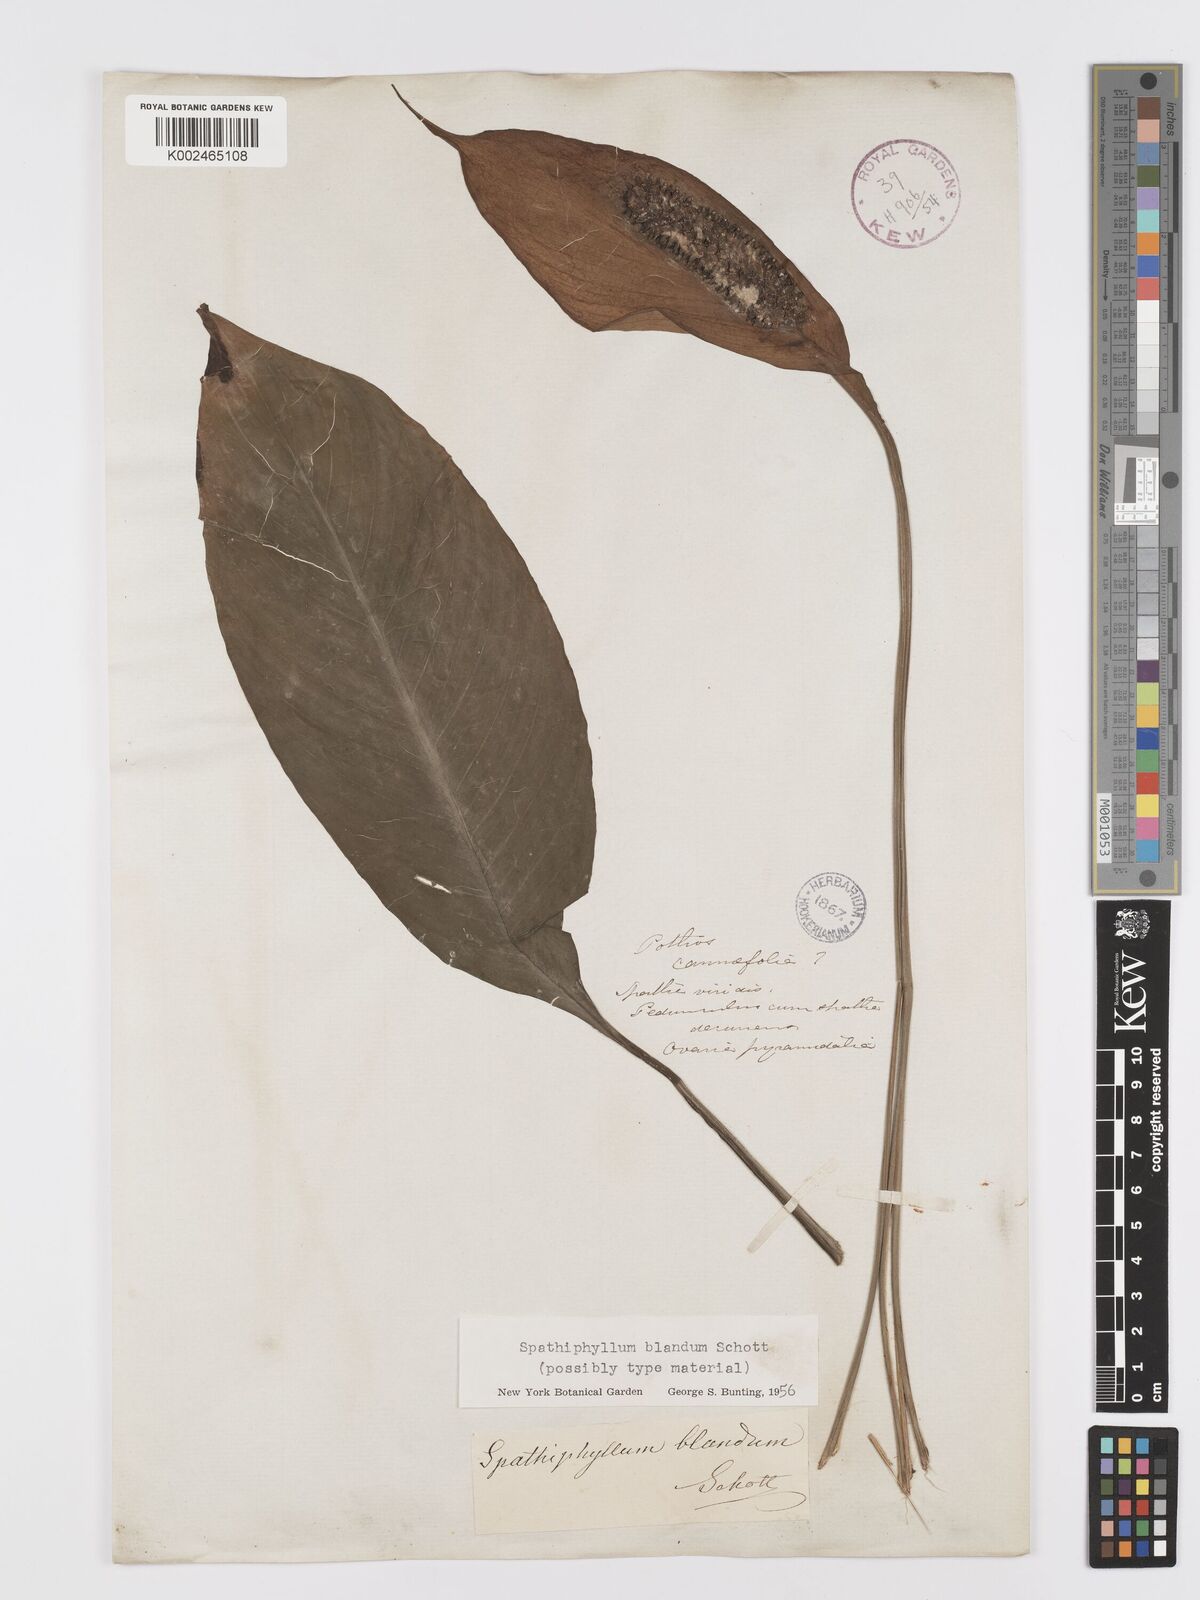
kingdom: Plantae
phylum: Tracheophyta
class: Liliopsida
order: Alismatales
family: Araceae
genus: Spathiphyllum
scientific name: Spathiphyllum blandum
